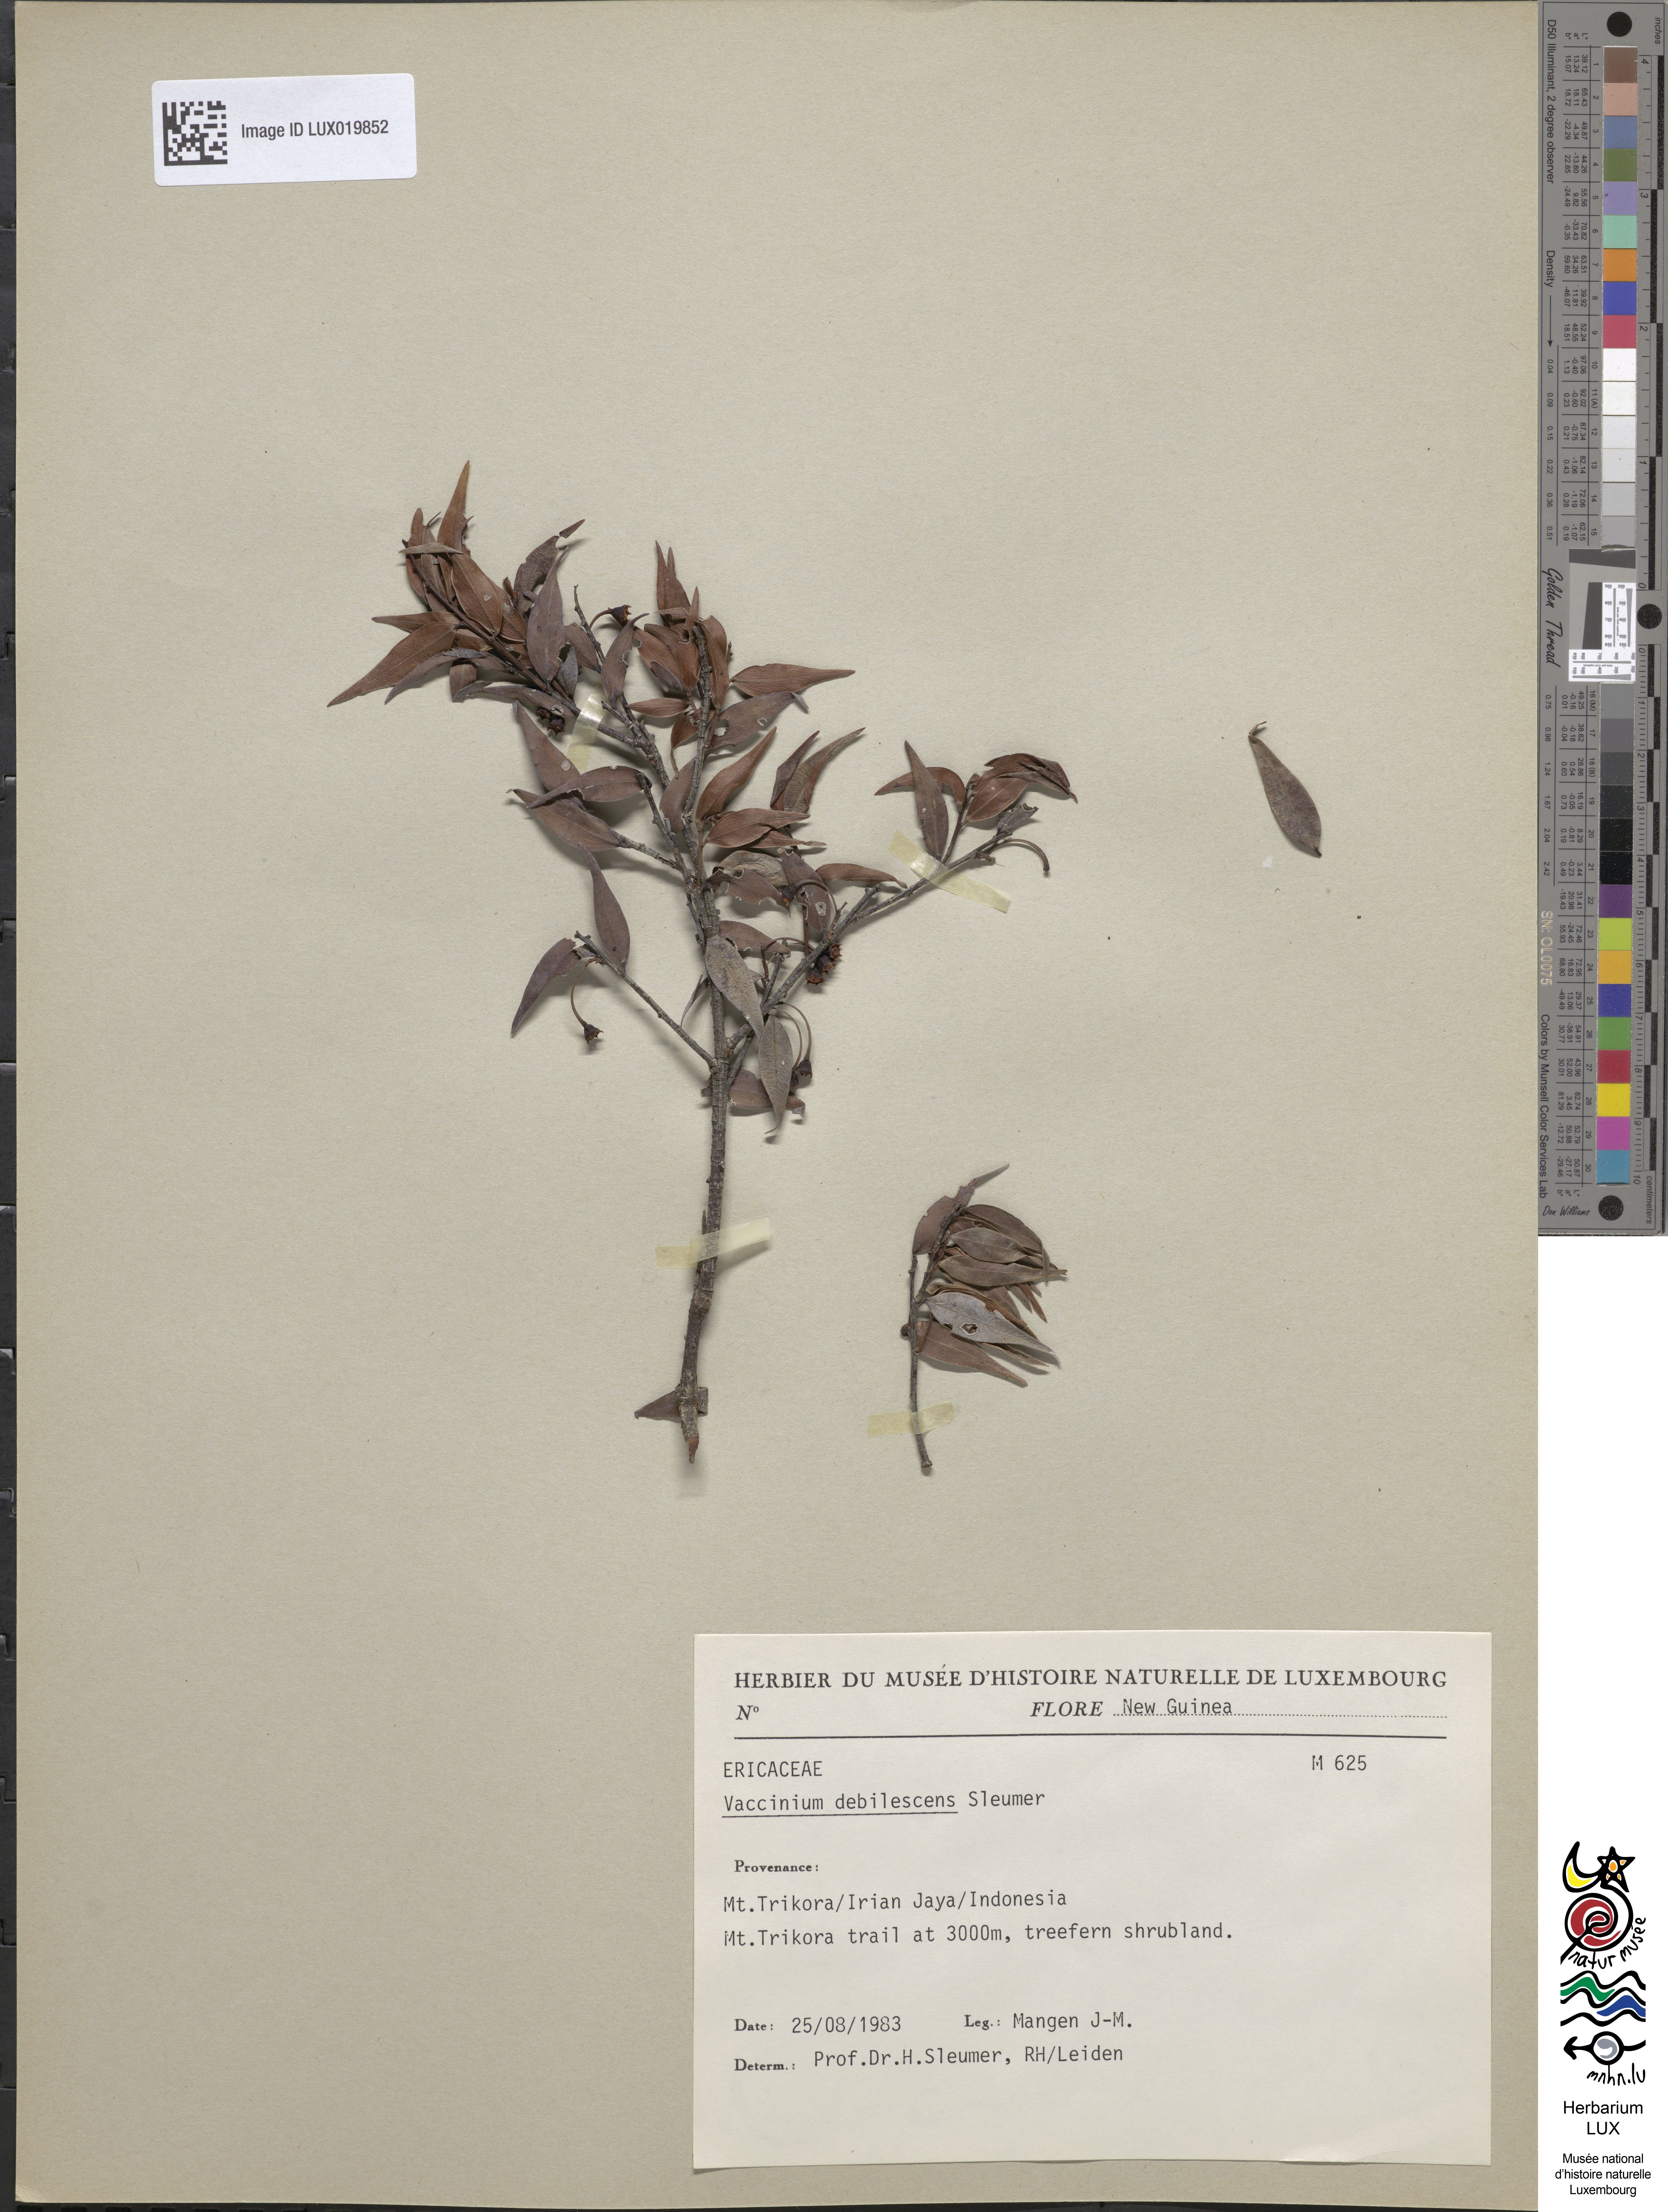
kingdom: Plantae
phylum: Tracheophyta
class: Magnoliopsida
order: Ericales
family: Ericaceae
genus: Vaccinium
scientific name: Vaccinium debilescens
